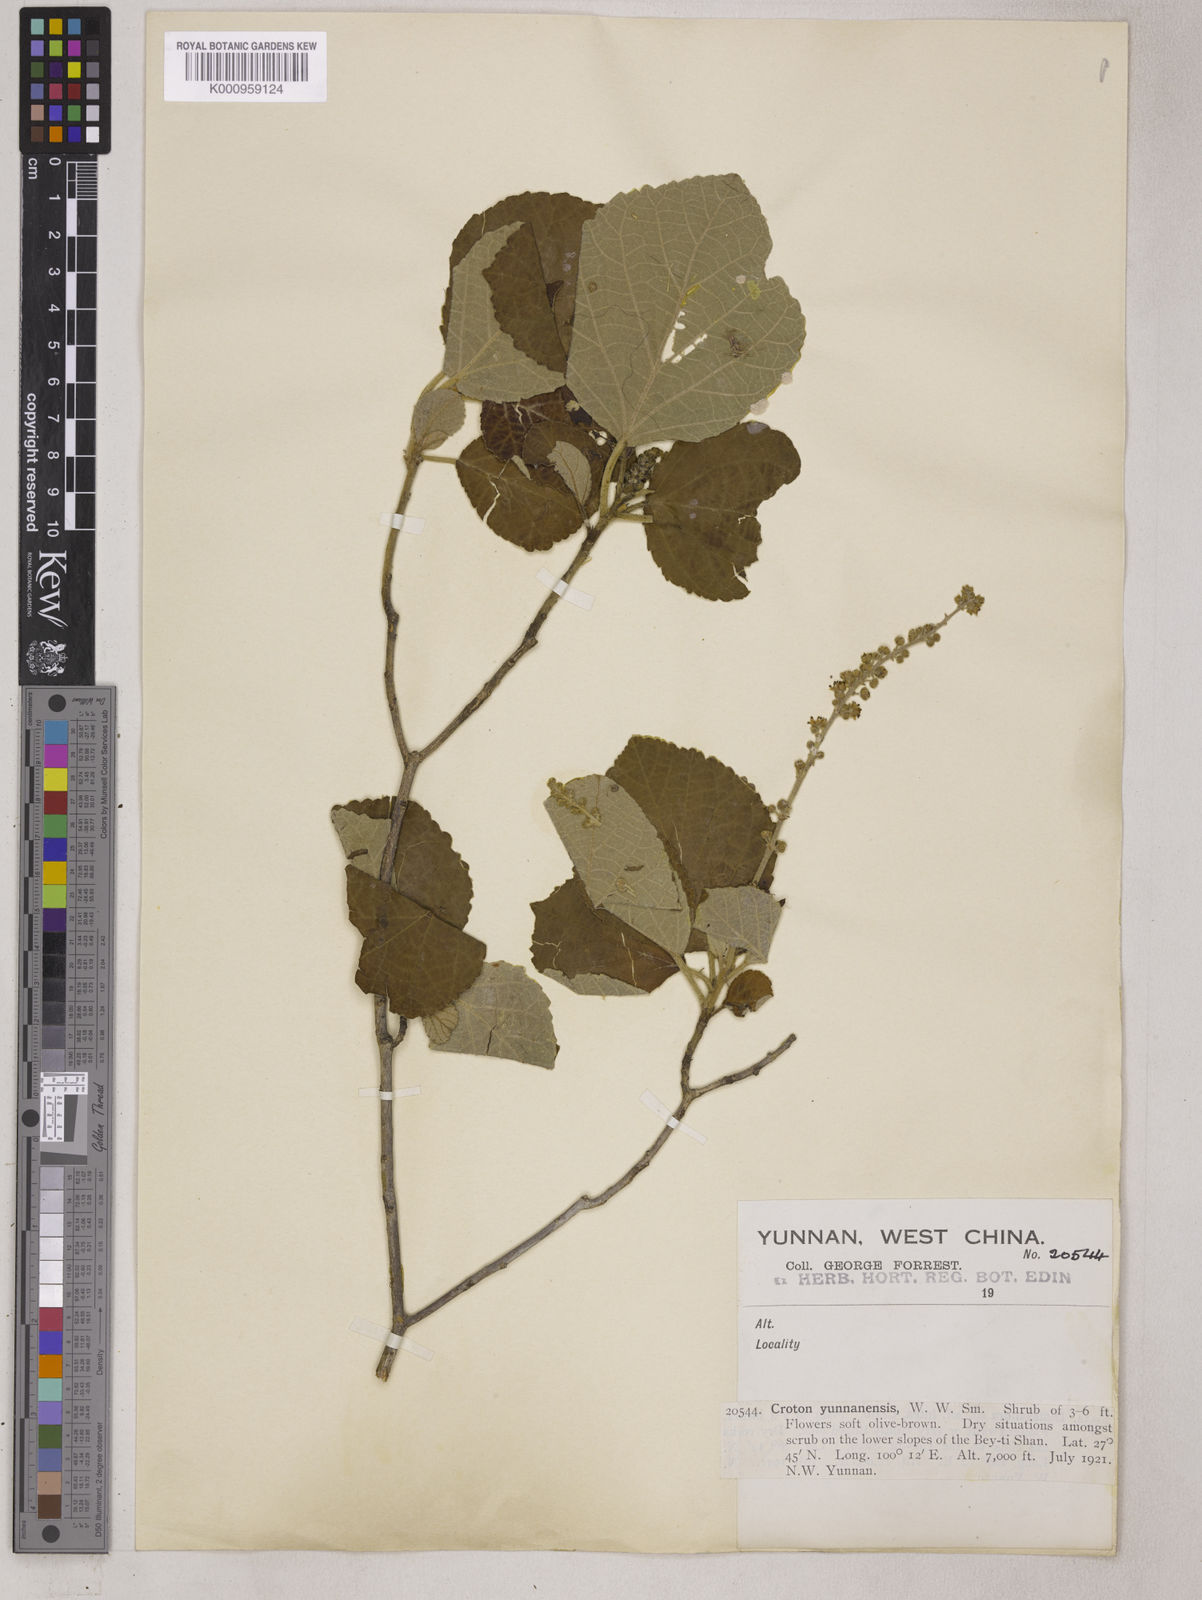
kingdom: Plantae
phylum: Tracheophyta
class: Magnoliopsida
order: Malpighiales
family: Euphorbiaceae
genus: Croton
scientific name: Croton yunnanensis
